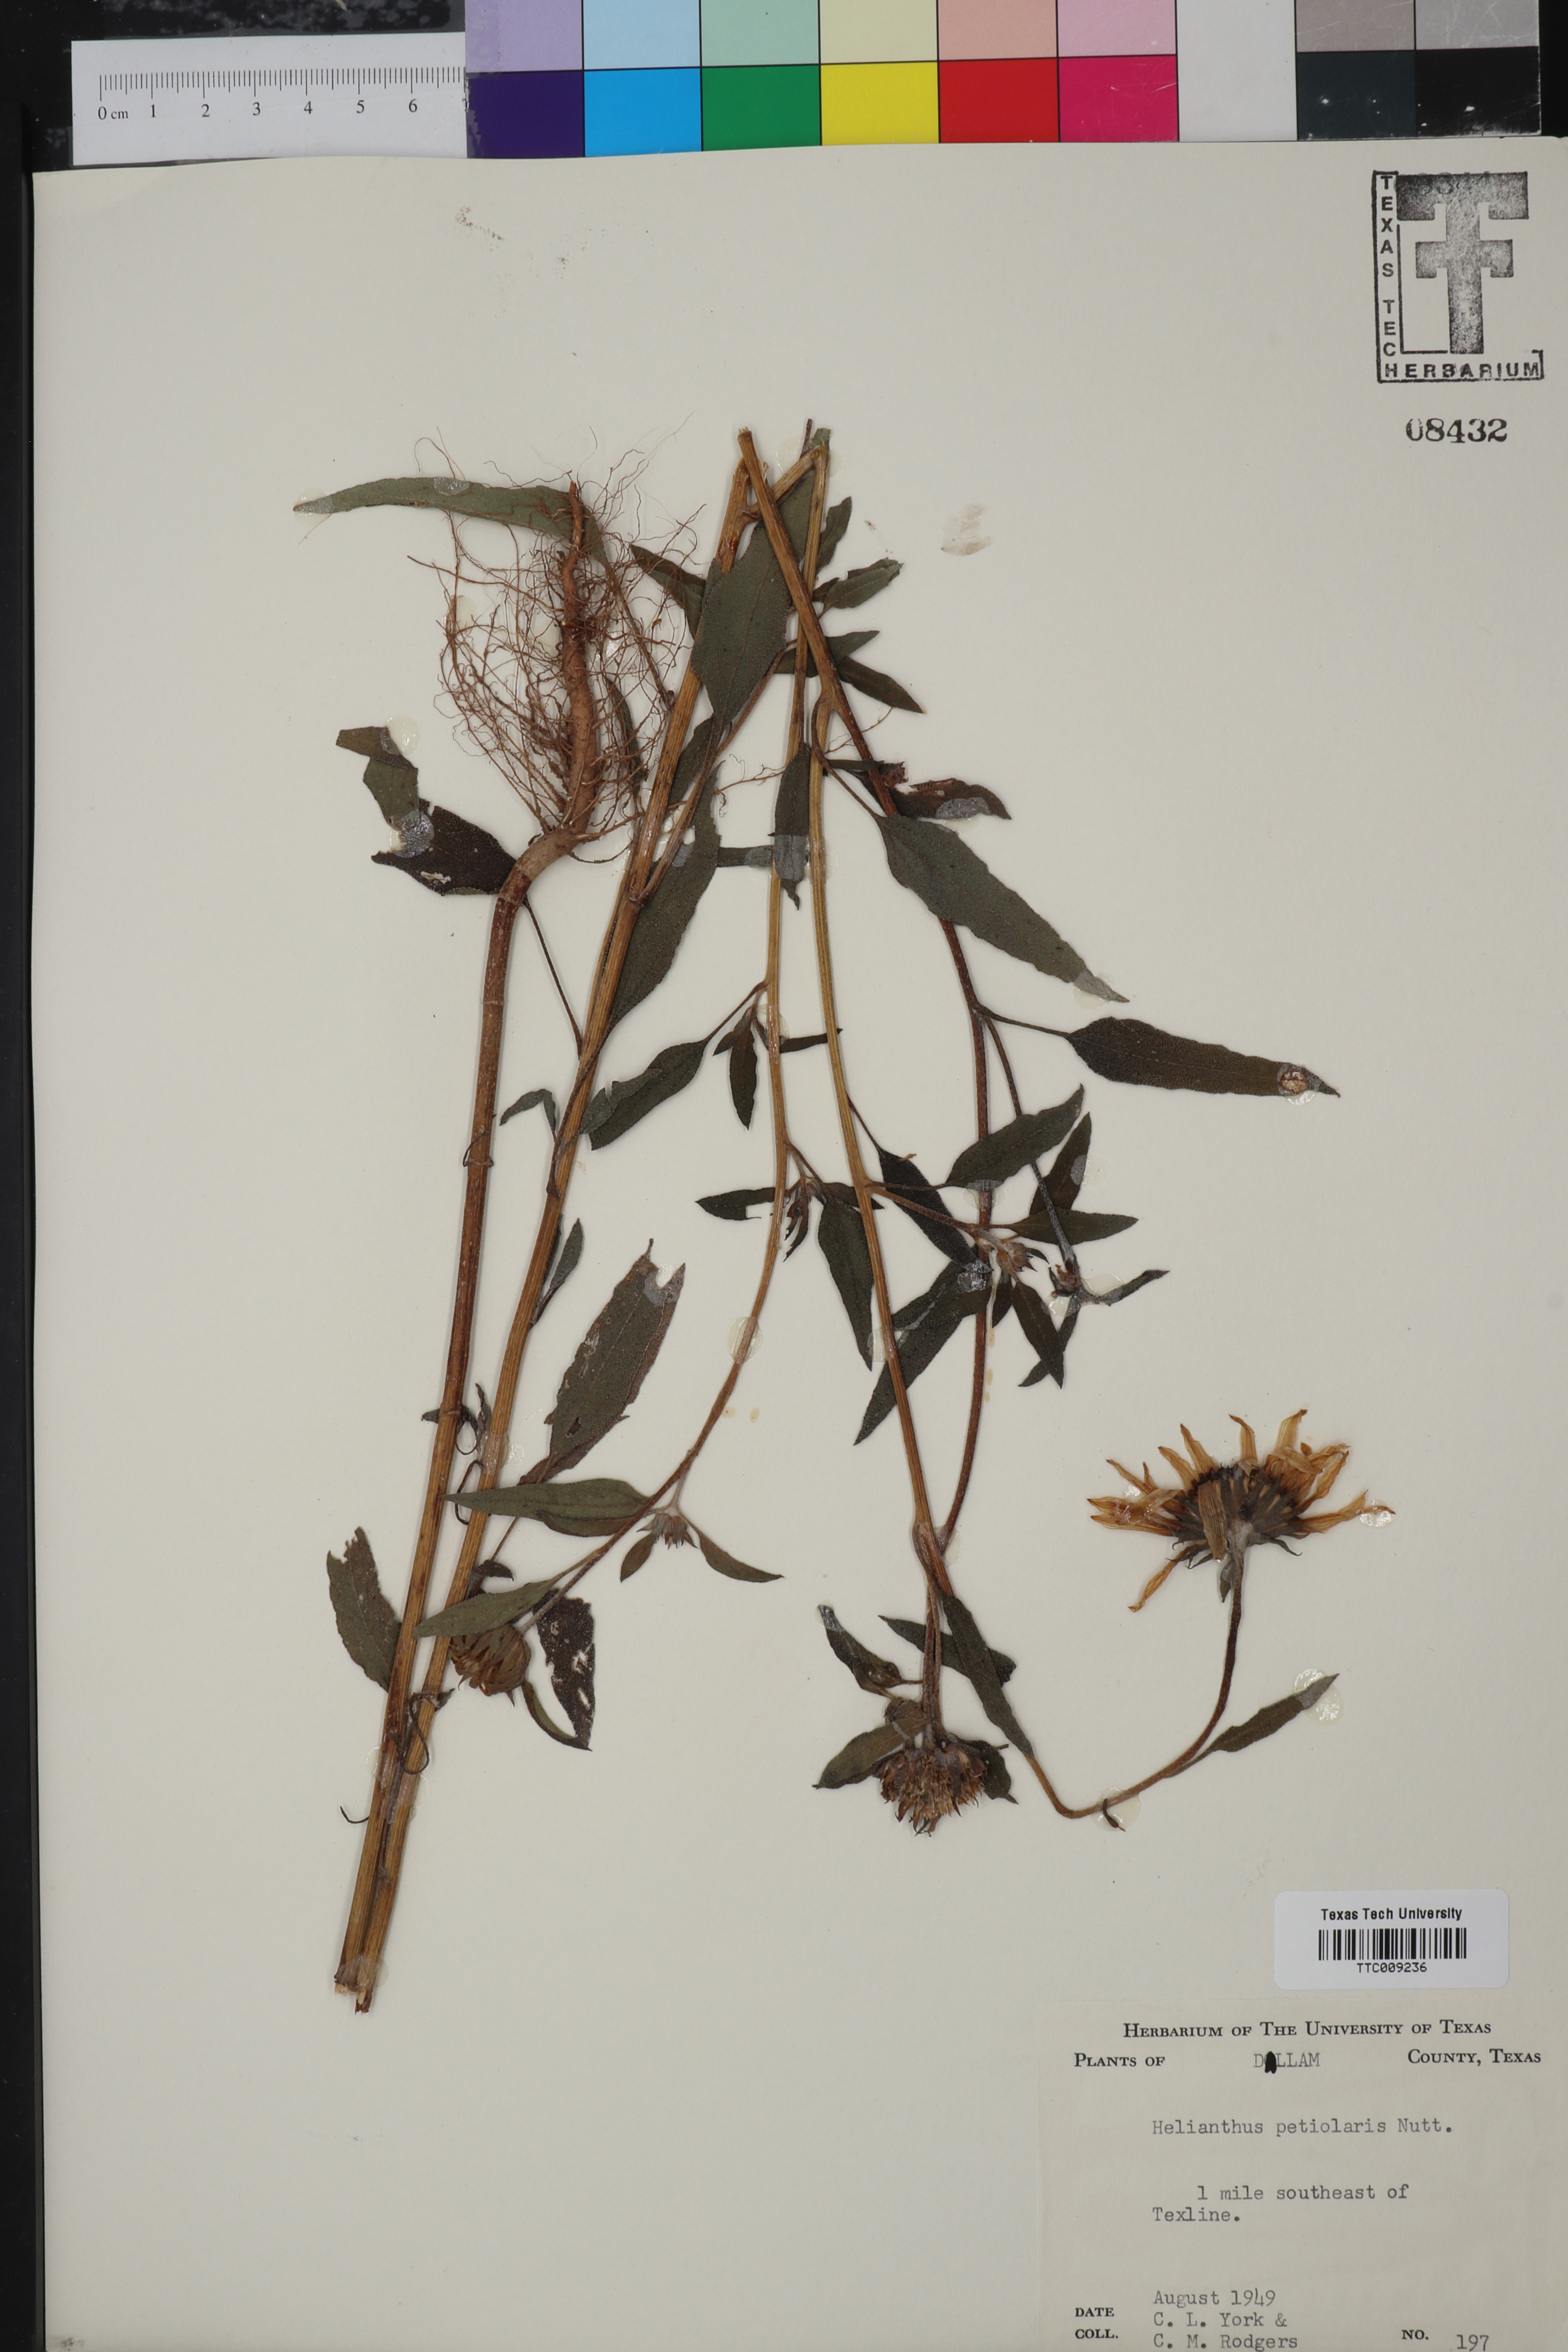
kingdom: Plantae
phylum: Tracheophyta
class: Magnoliopsida
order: Asterales
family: Asteraceae
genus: Helianthus
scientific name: Helianthus petiolaris
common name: Lesser sunflower
